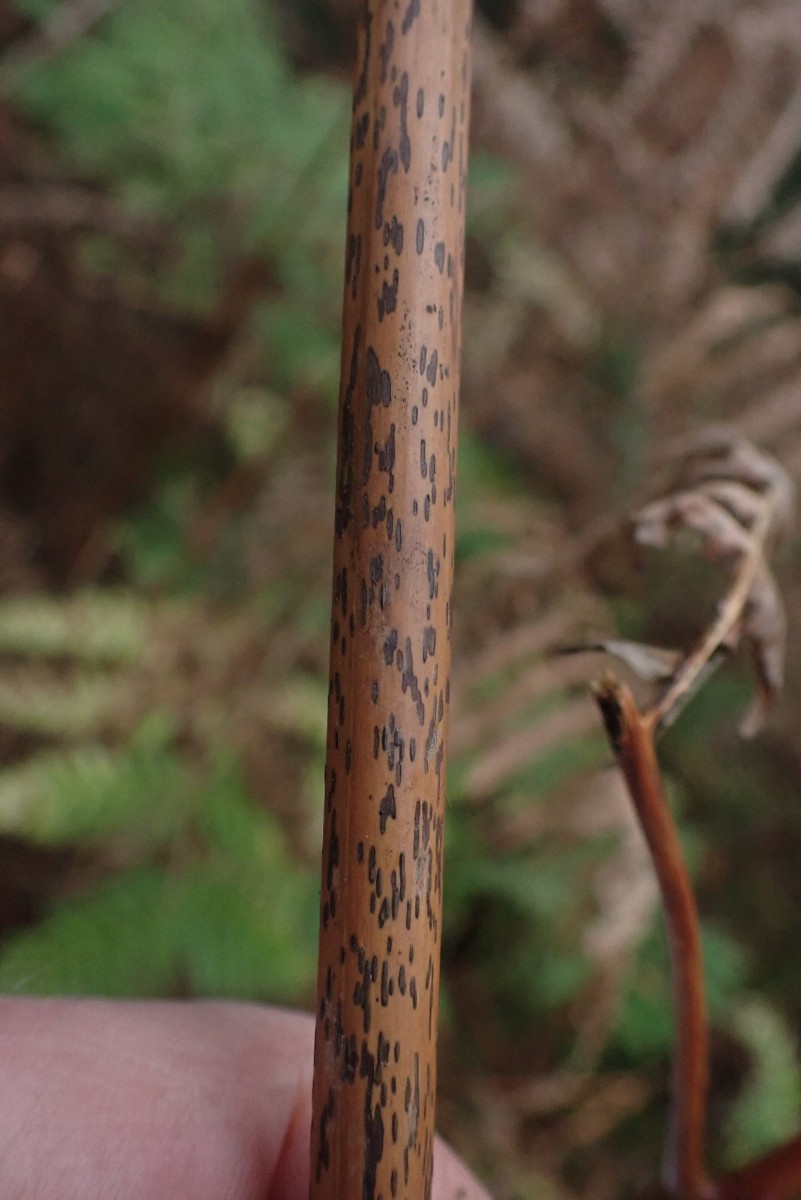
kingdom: Fungi
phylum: Ascomycota
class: Dothideomycetes
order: Pleosporales
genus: Rhopographus
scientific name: Rhopographus filicinus
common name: Bracken map
